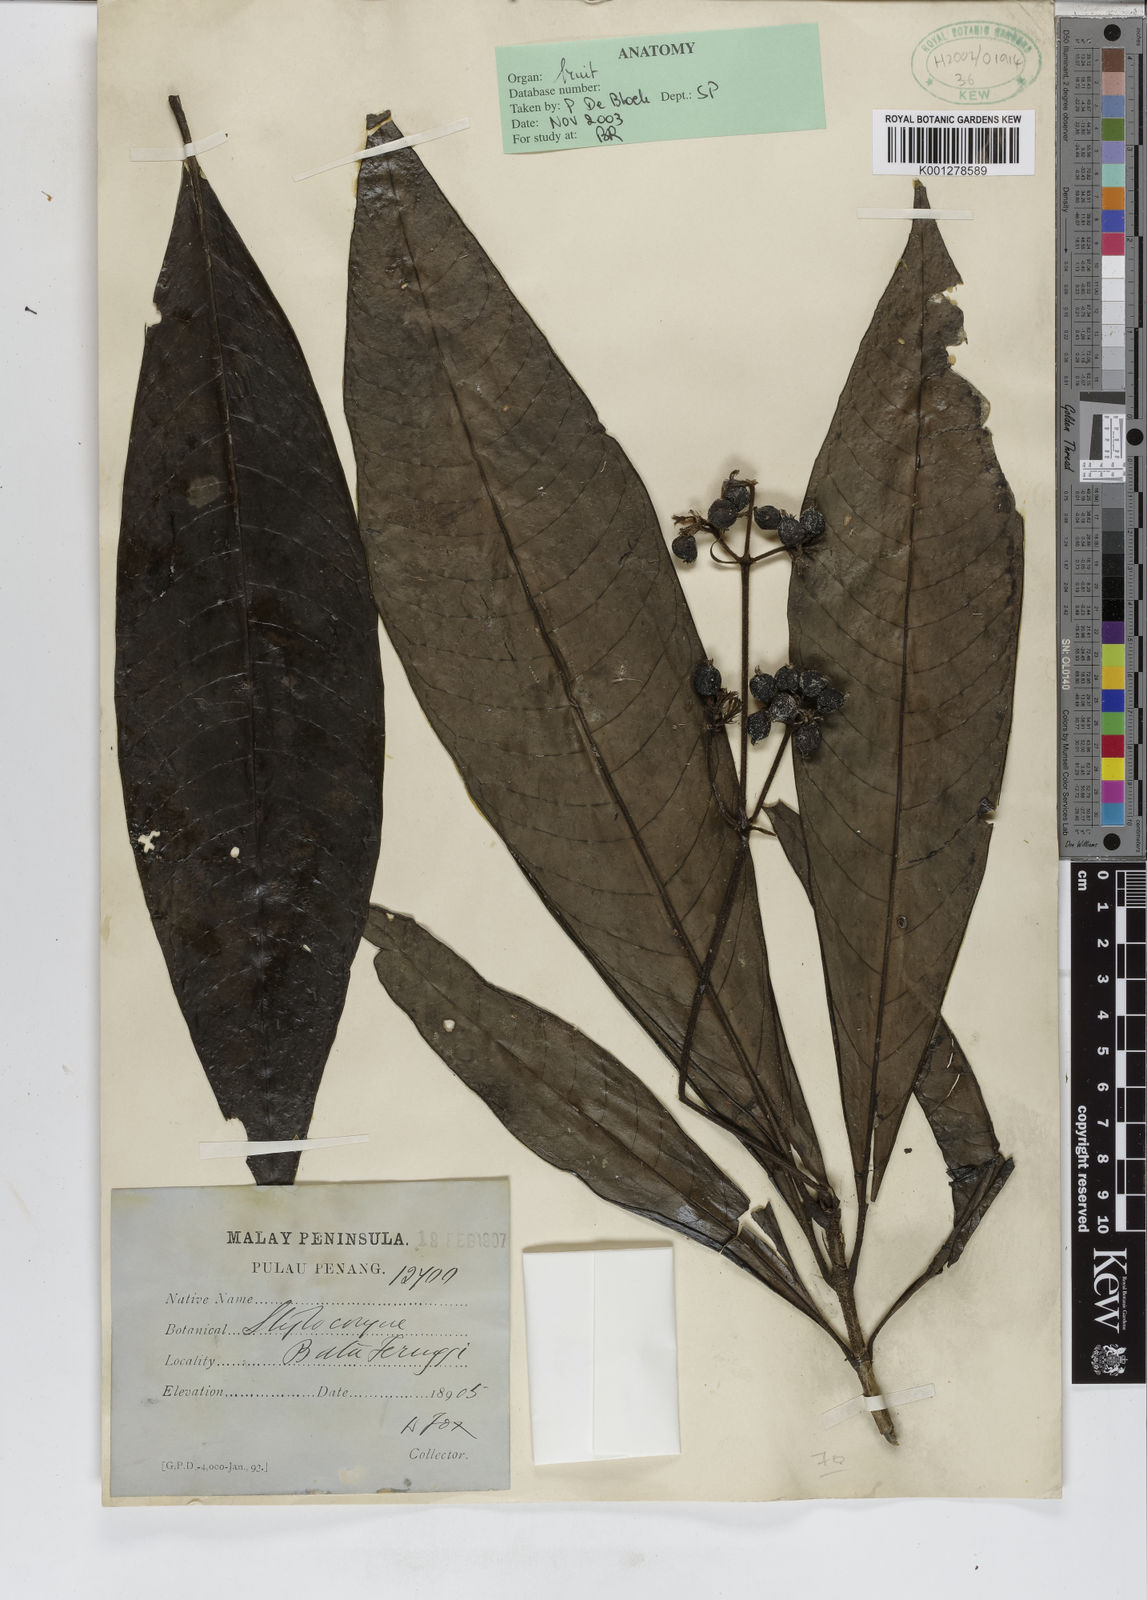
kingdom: Plantae
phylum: Tracheophyta
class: Magnoliopsida
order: Gentianales
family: Rubiaceae
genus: Tarenna
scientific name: Tarenna
